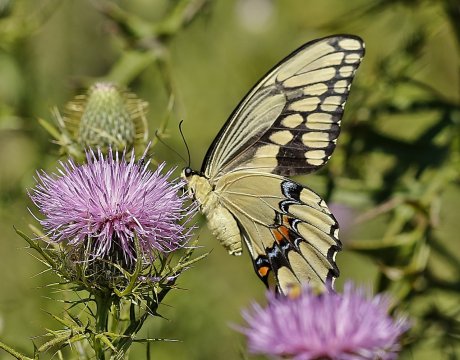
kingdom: Animalia
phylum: Arthropoda
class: Insecta
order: Lepidoptera
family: Papilionidae
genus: Papilio
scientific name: Papilio cresphontes
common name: Eastern Giant Swallowtail
